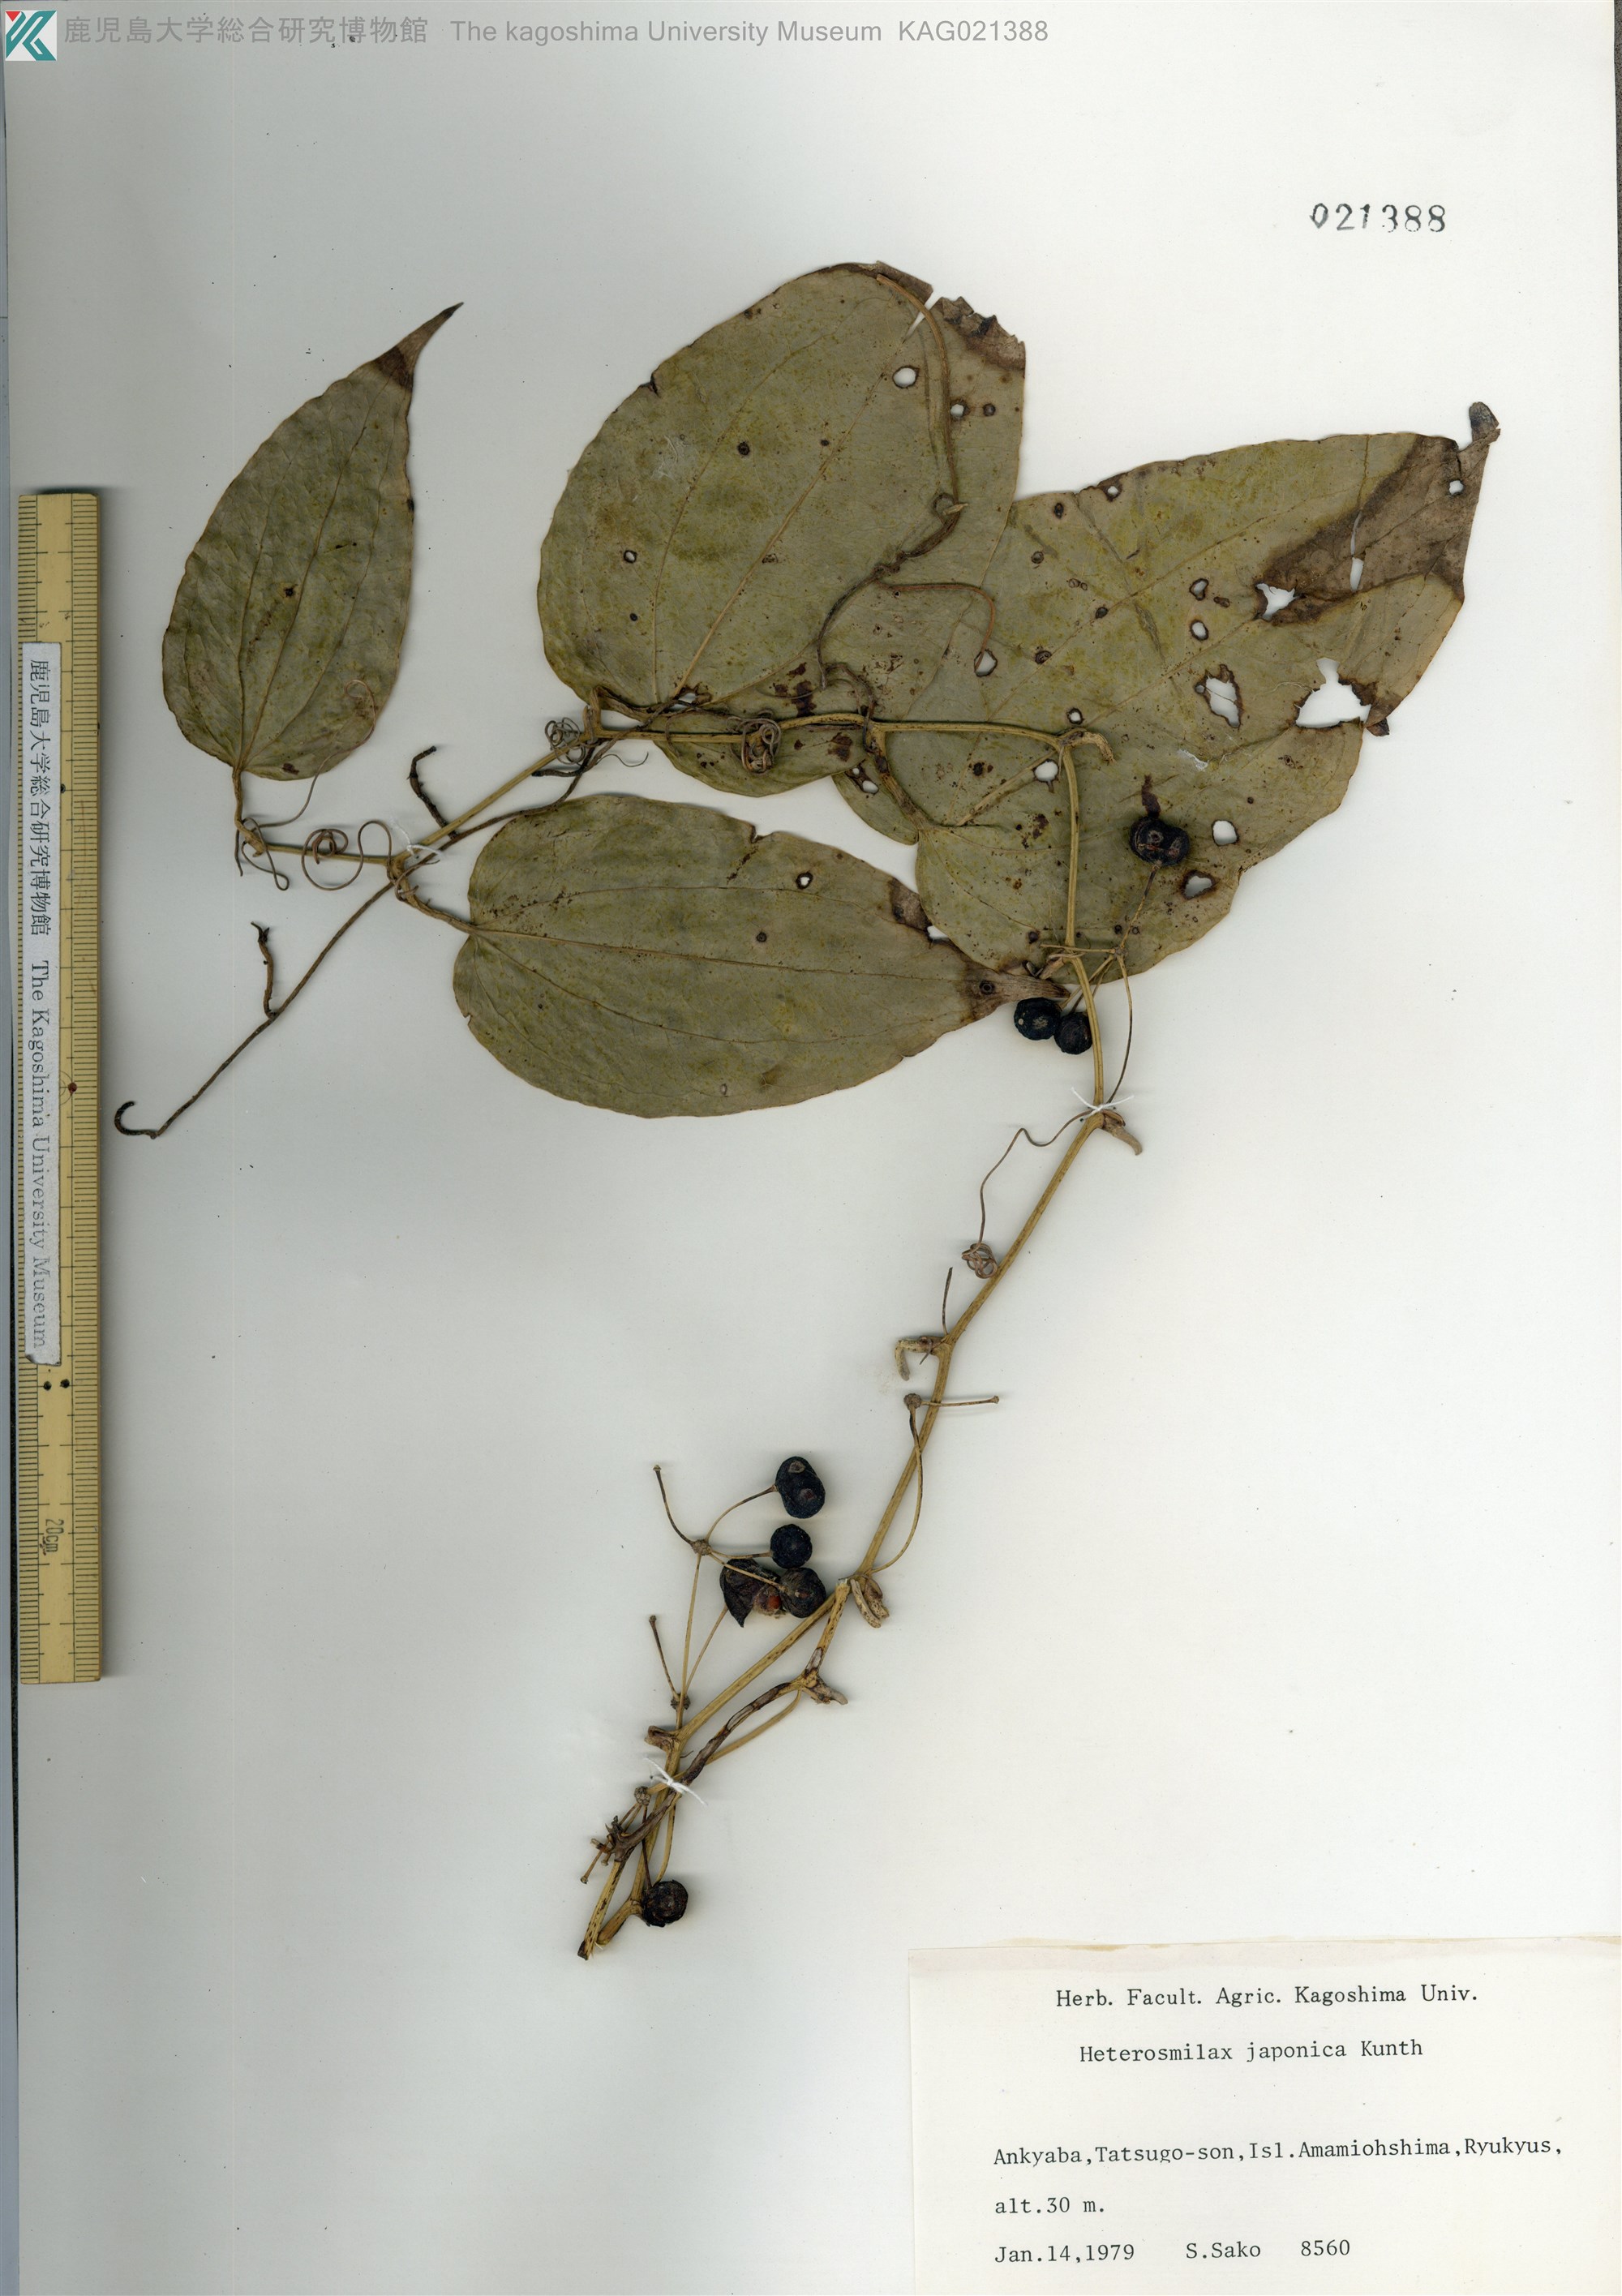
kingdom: Plantae
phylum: Tracheophyta
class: Liliopsida
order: Liliales
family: Smilacaceae
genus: Smilax
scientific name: Smilax insularis
